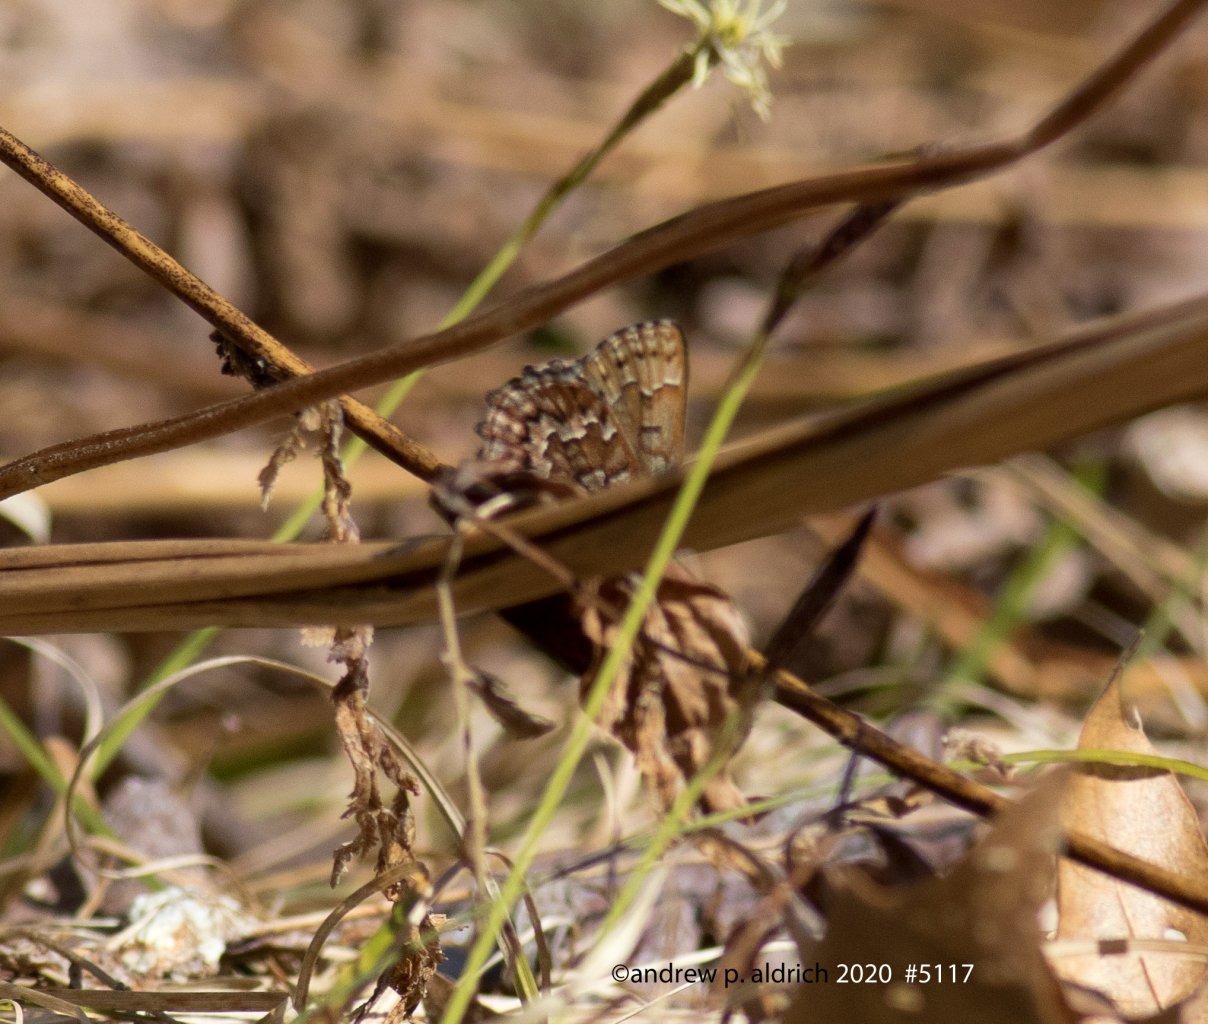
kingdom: Animalia
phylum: Arthropoda
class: Insecta
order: Lepidoptera
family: Lycaenidae
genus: Incisalia
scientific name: Incisalia niphon
